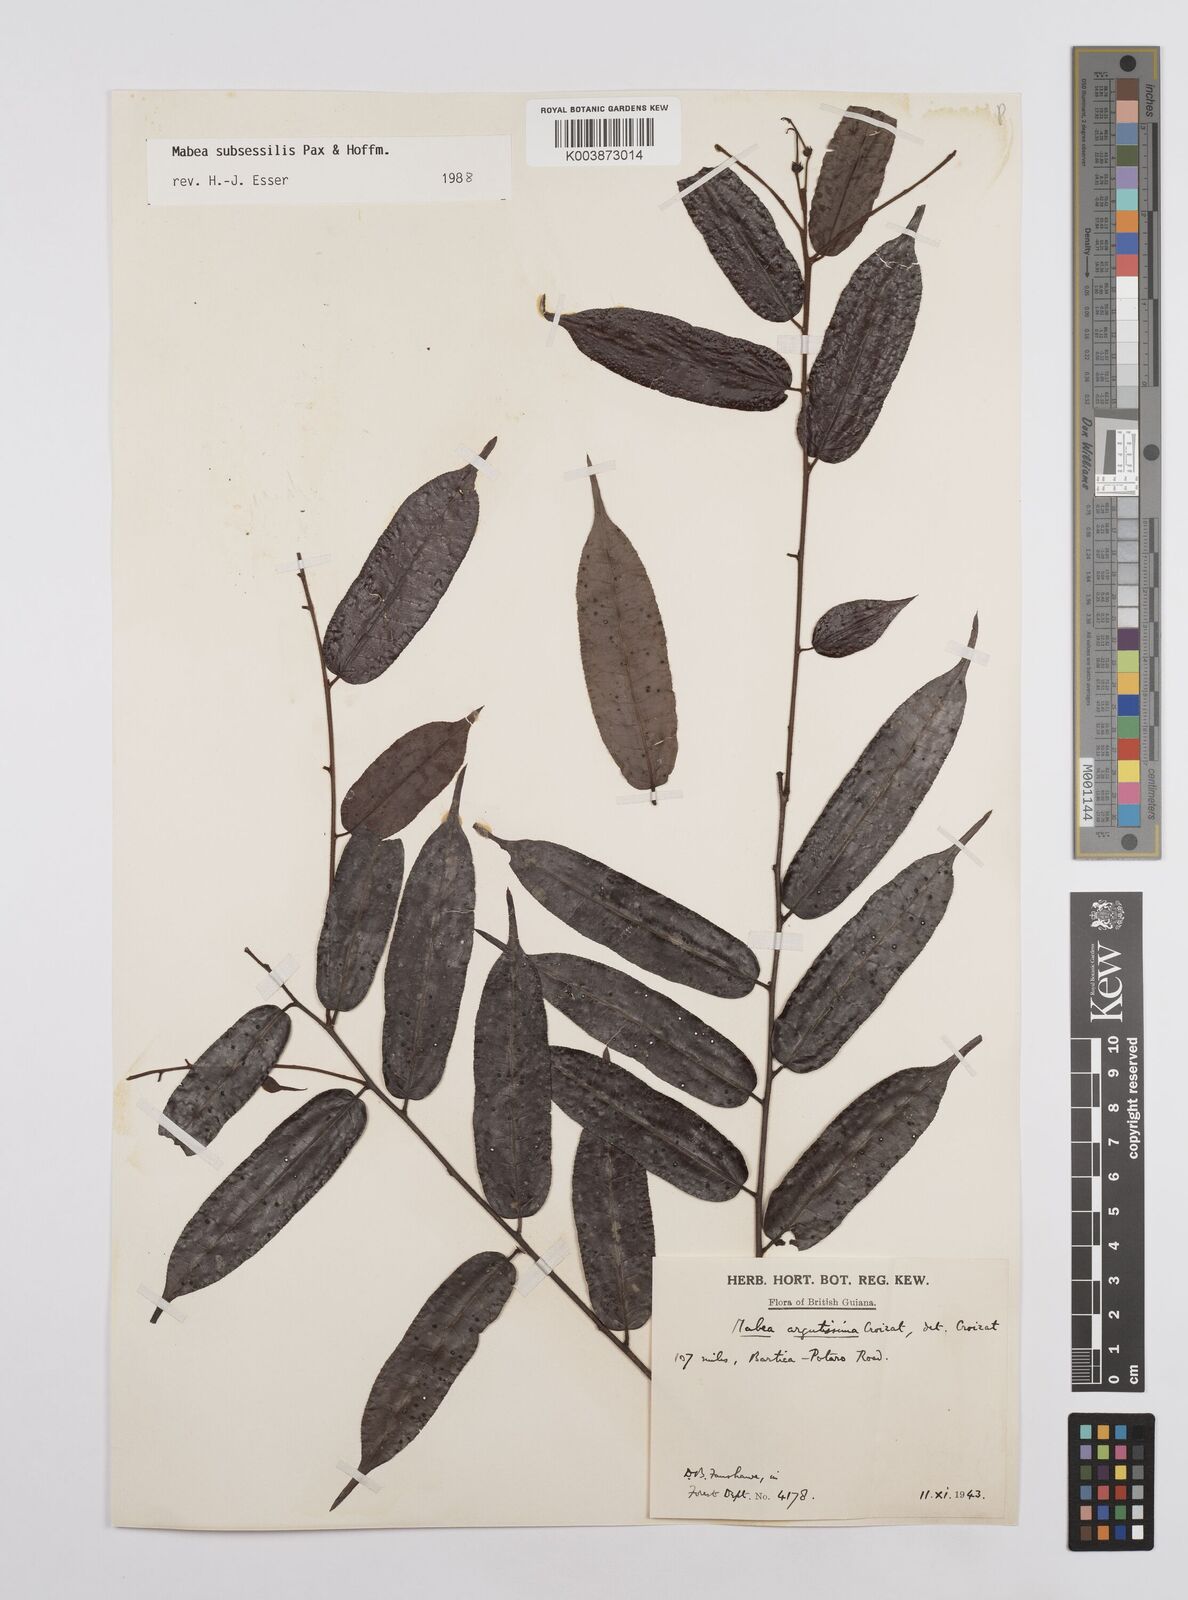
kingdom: Plantae
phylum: Tracheophyta
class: Magnoliopsida
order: Malpighiales
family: Euphorbiaceae
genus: Mabea
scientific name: Mabea subsessilis
